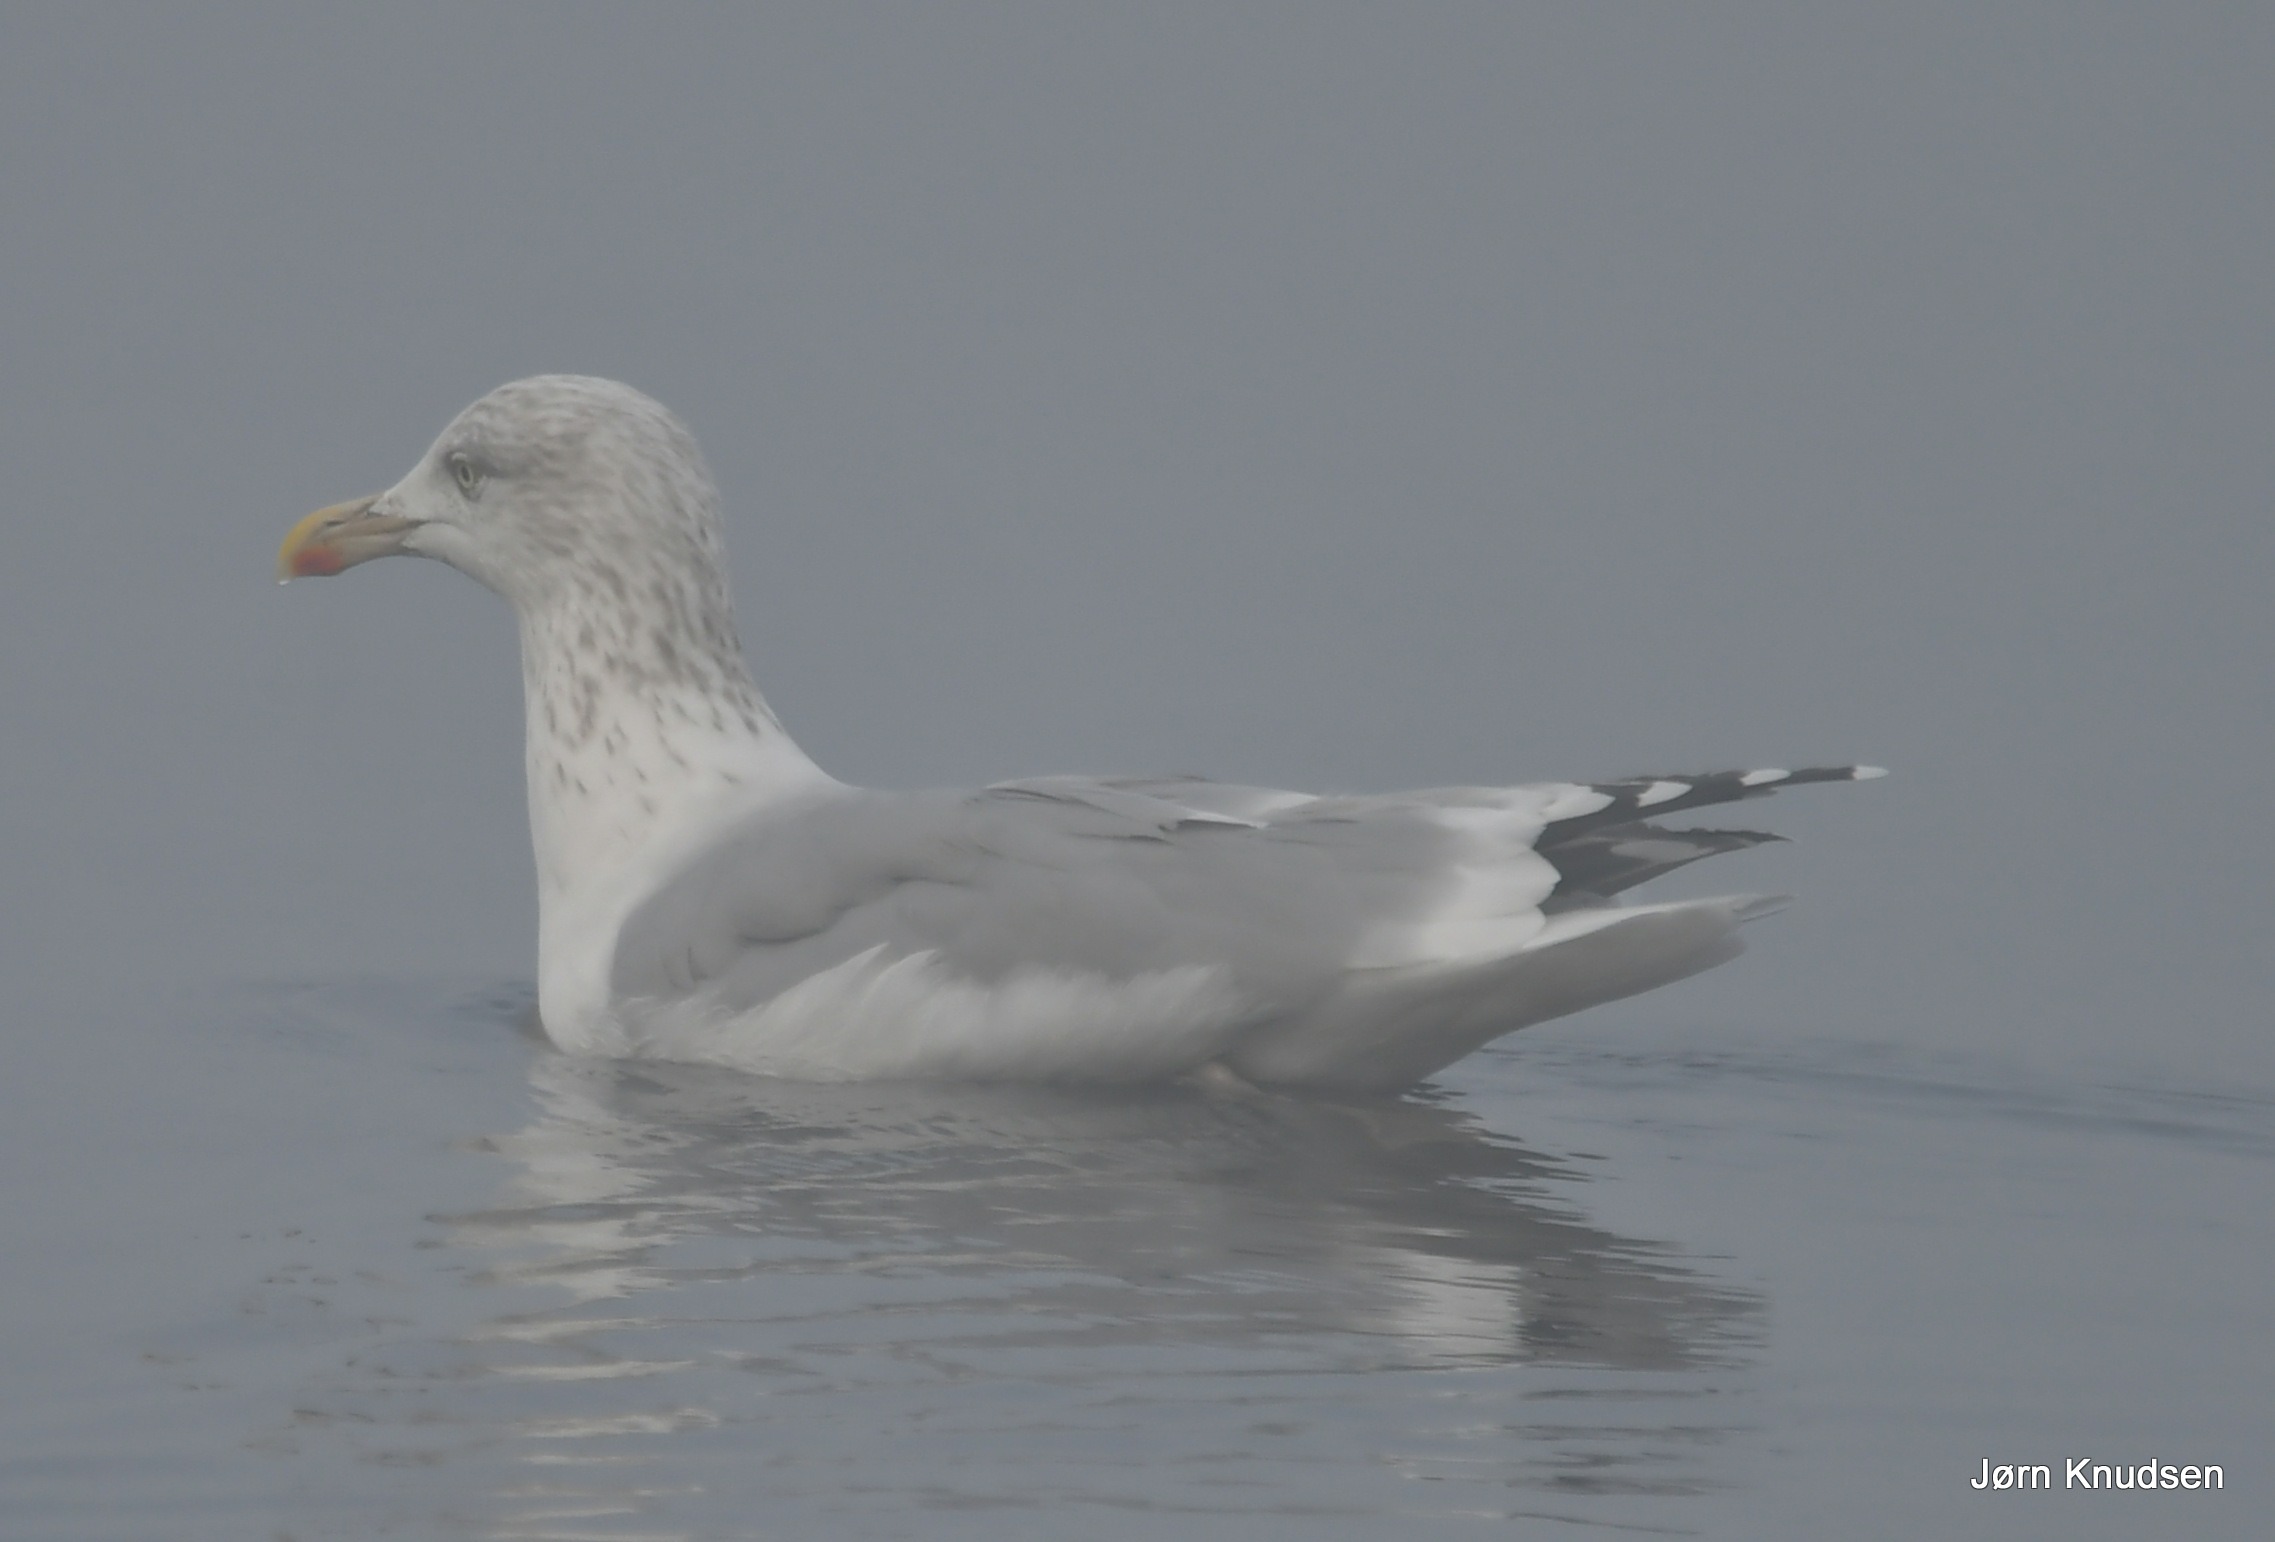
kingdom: Animalia
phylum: Chordata
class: Aves
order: Charadriiformes
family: Laridae
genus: Larus
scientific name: Larus argentatus
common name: Sølvmåge
